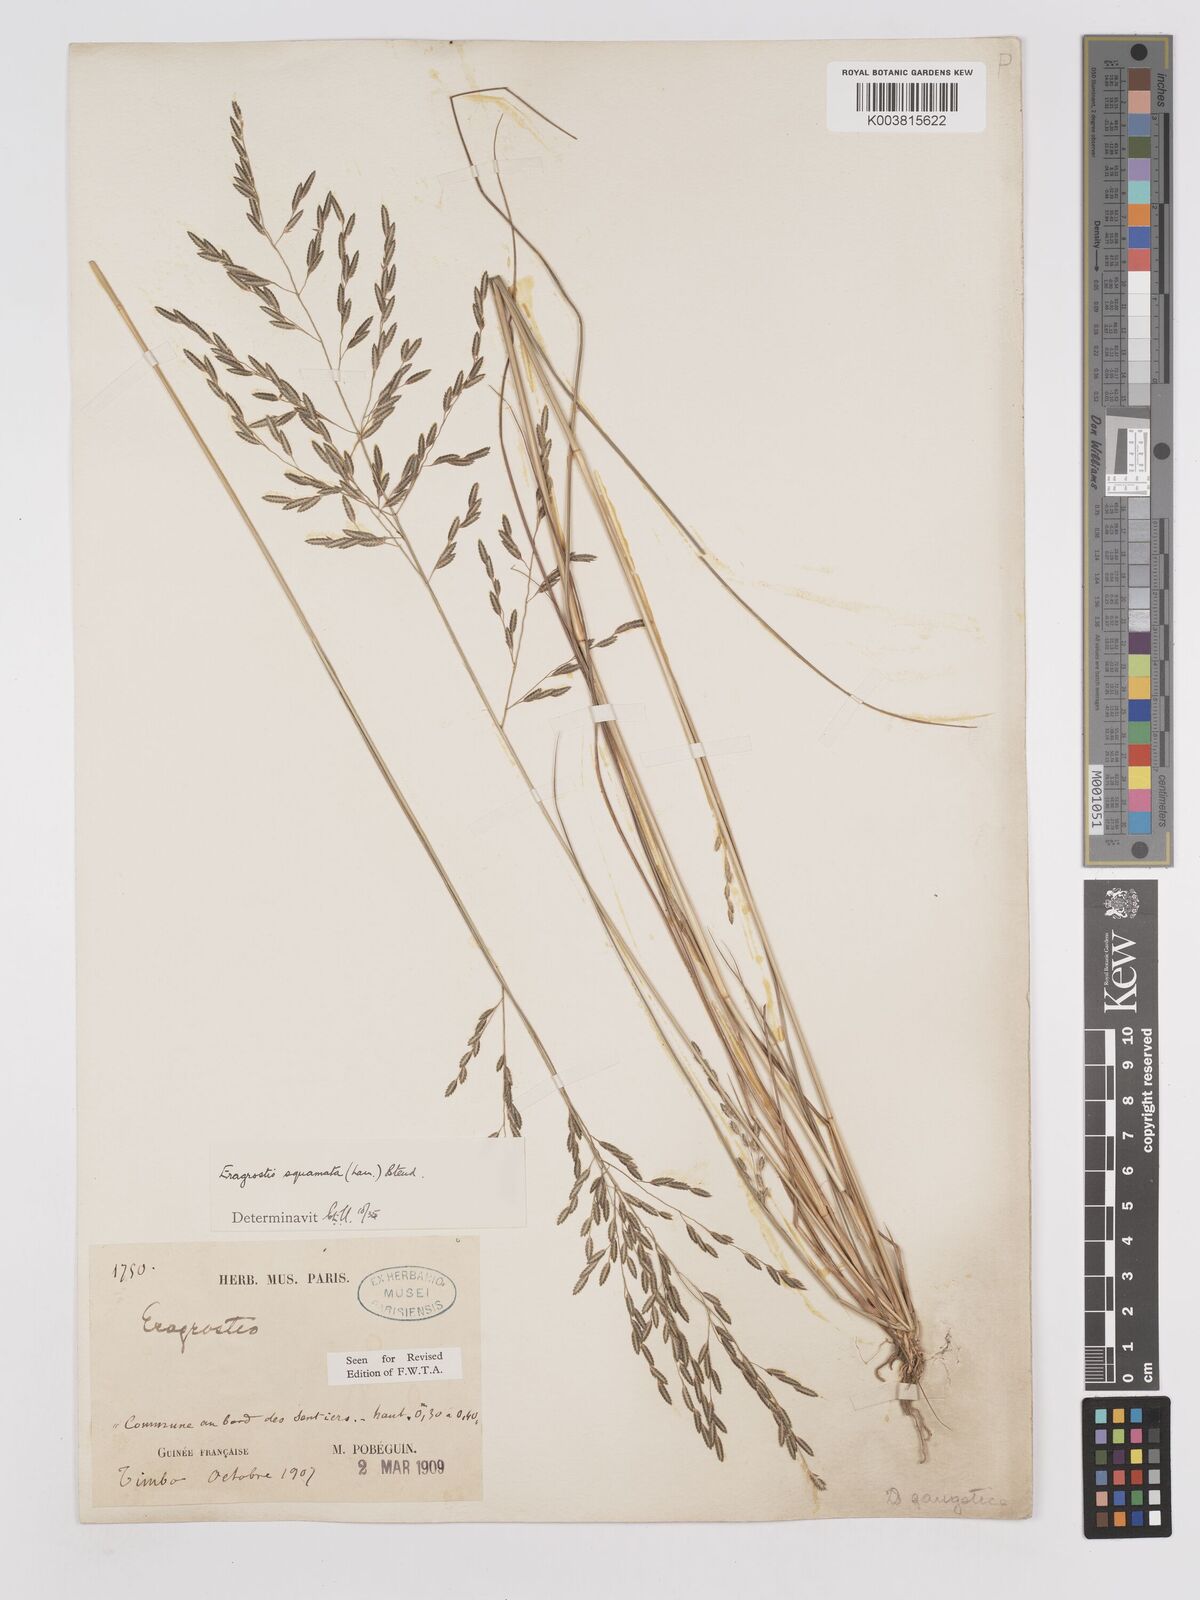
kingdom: Plantae
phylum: Tracheophyta
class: Liliopsida
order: Poales
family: Poaceae
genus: Eragrostis
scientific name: Eragrostis squamata
